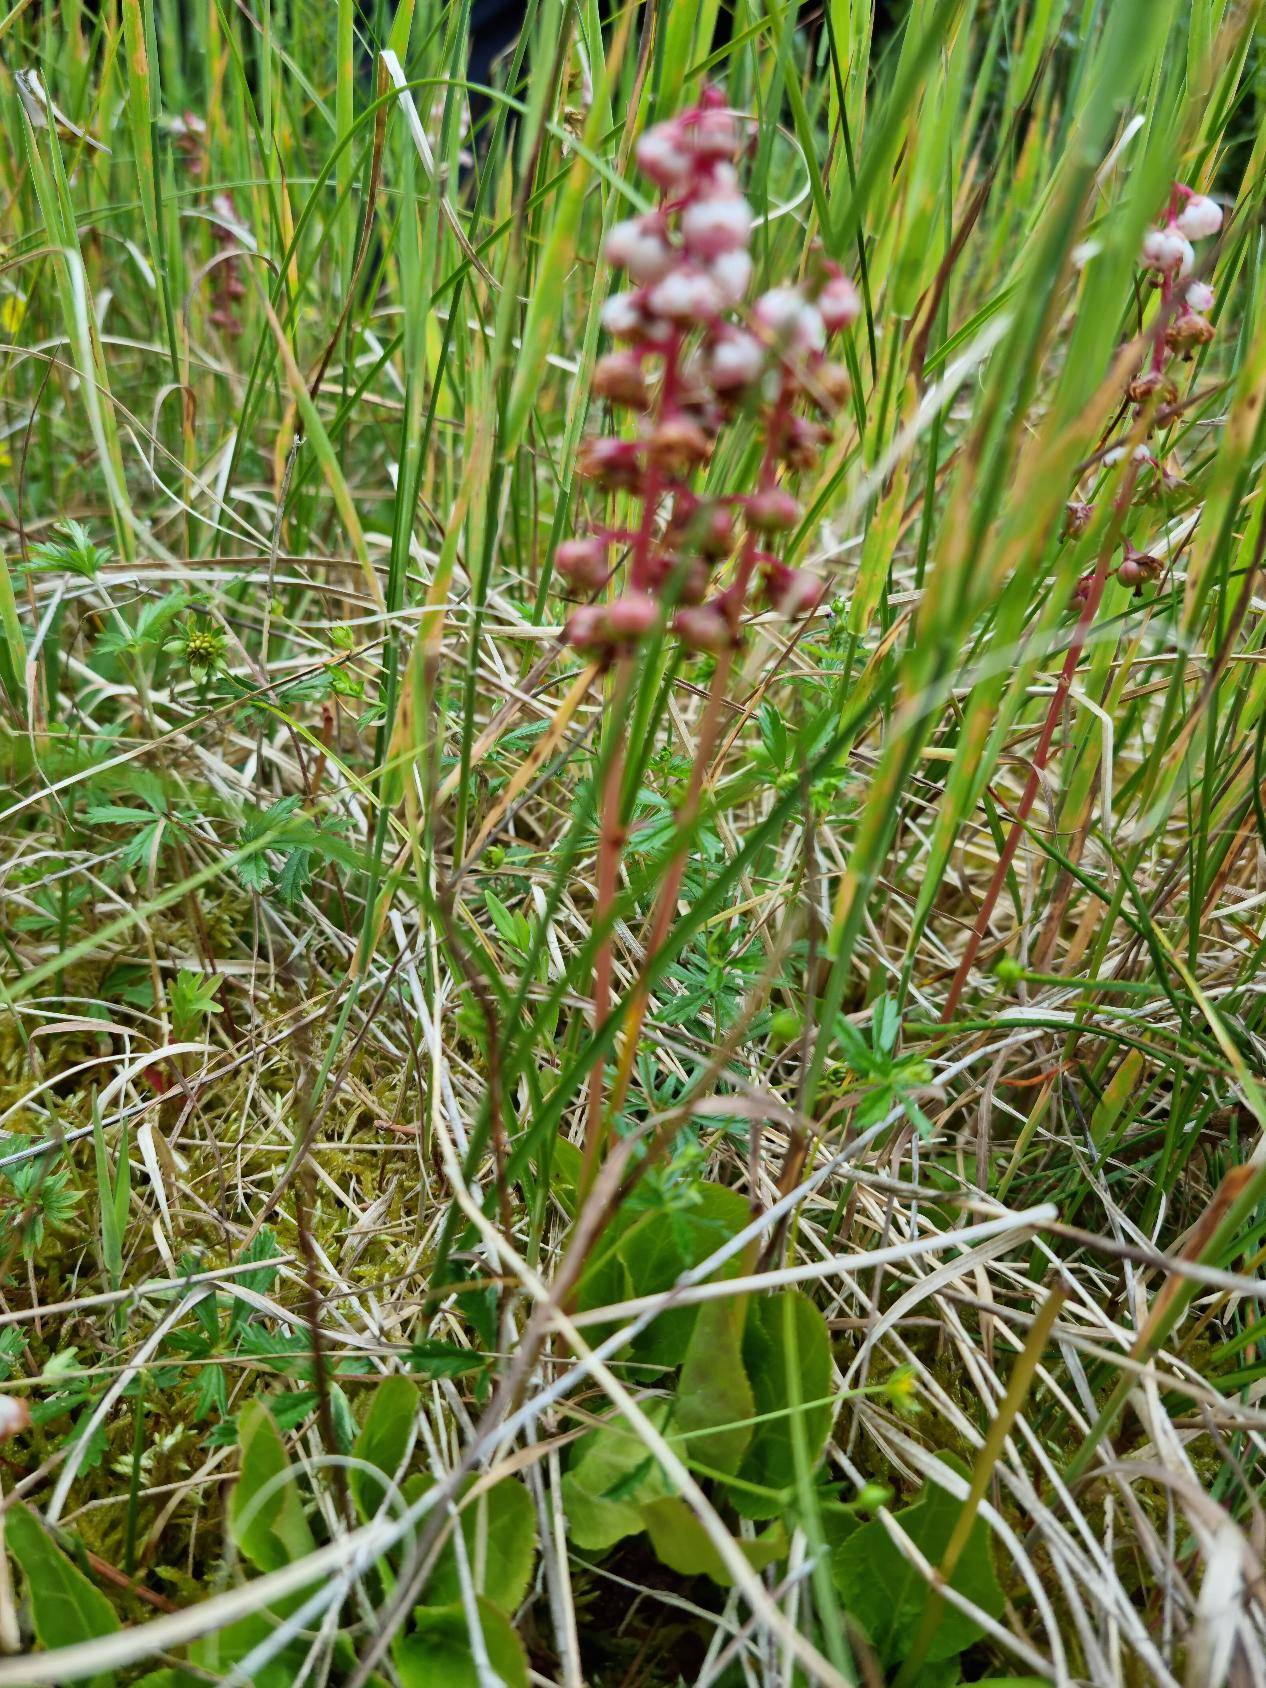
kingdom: Plantae
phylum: Tracheophyta
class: Magnoliopsida
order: Ericales
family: Ericaceae
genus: Pyrola
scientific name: Pyrola minor
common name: Liden vintergrøn
